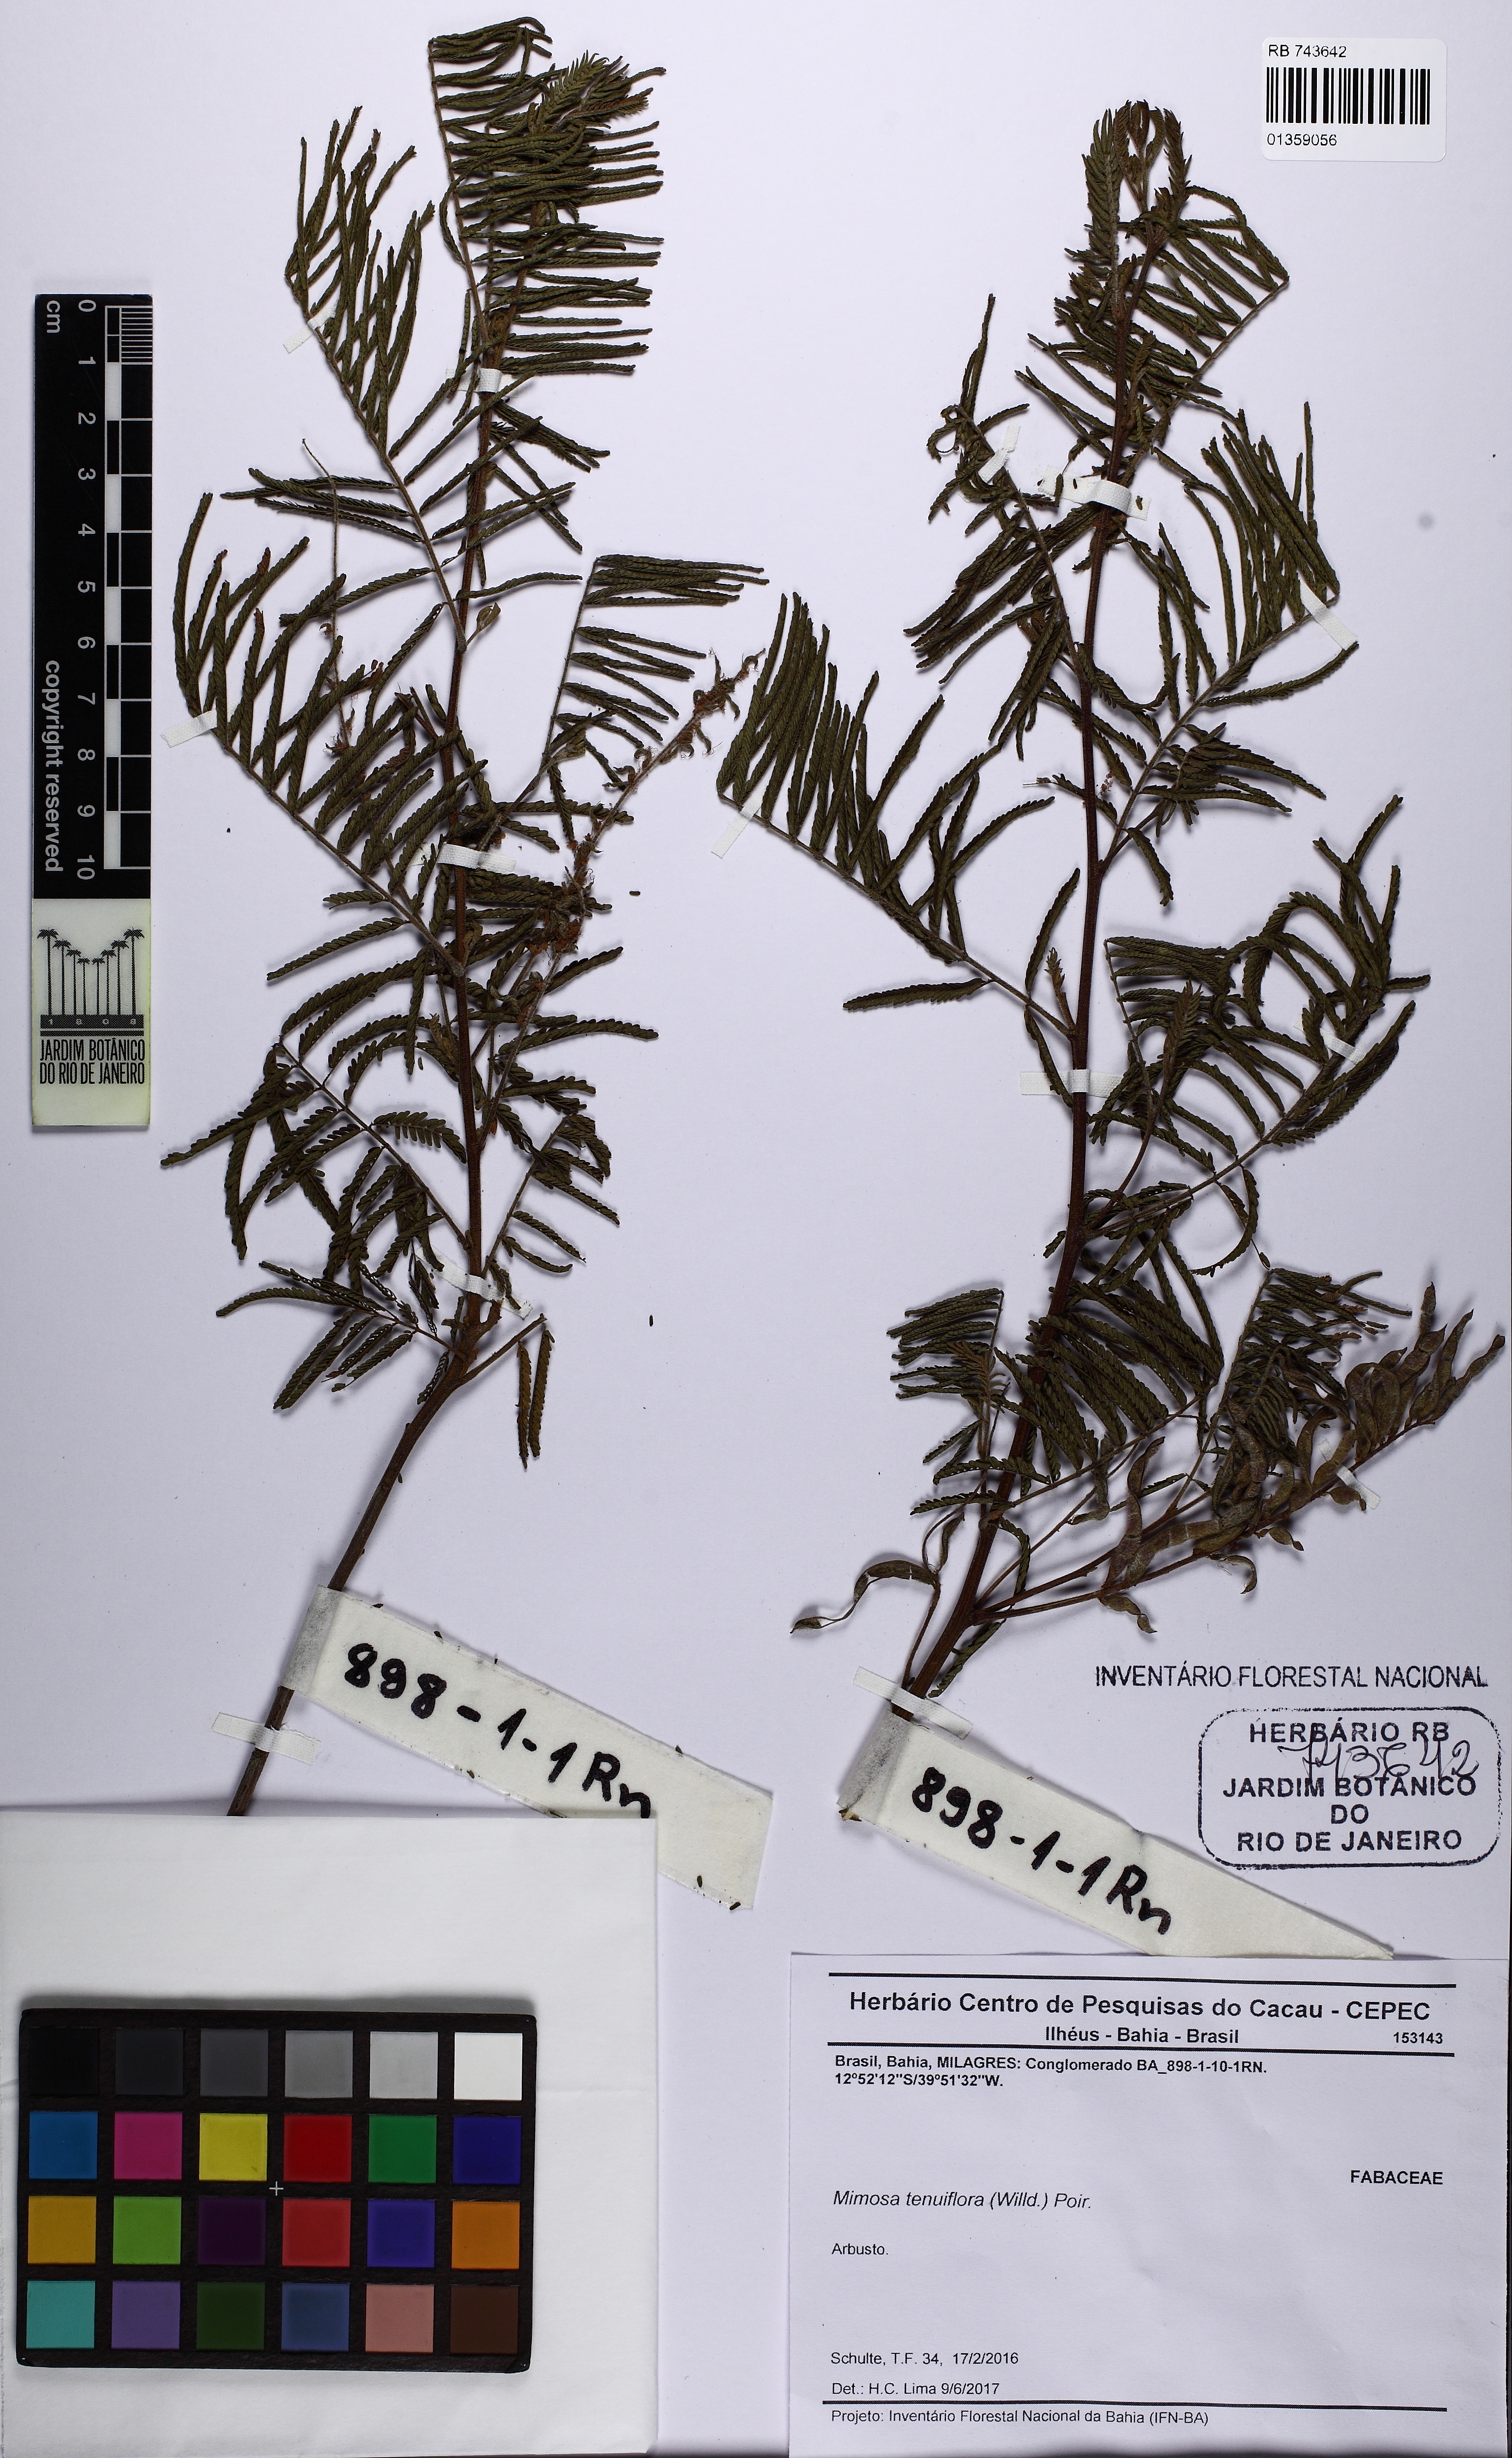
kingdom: Plantae
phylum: Tracheophyta
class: Magnoliopsida
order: Fabales
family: Fabaceae
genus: Mimosa
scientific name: Mimosa tenuiflora
